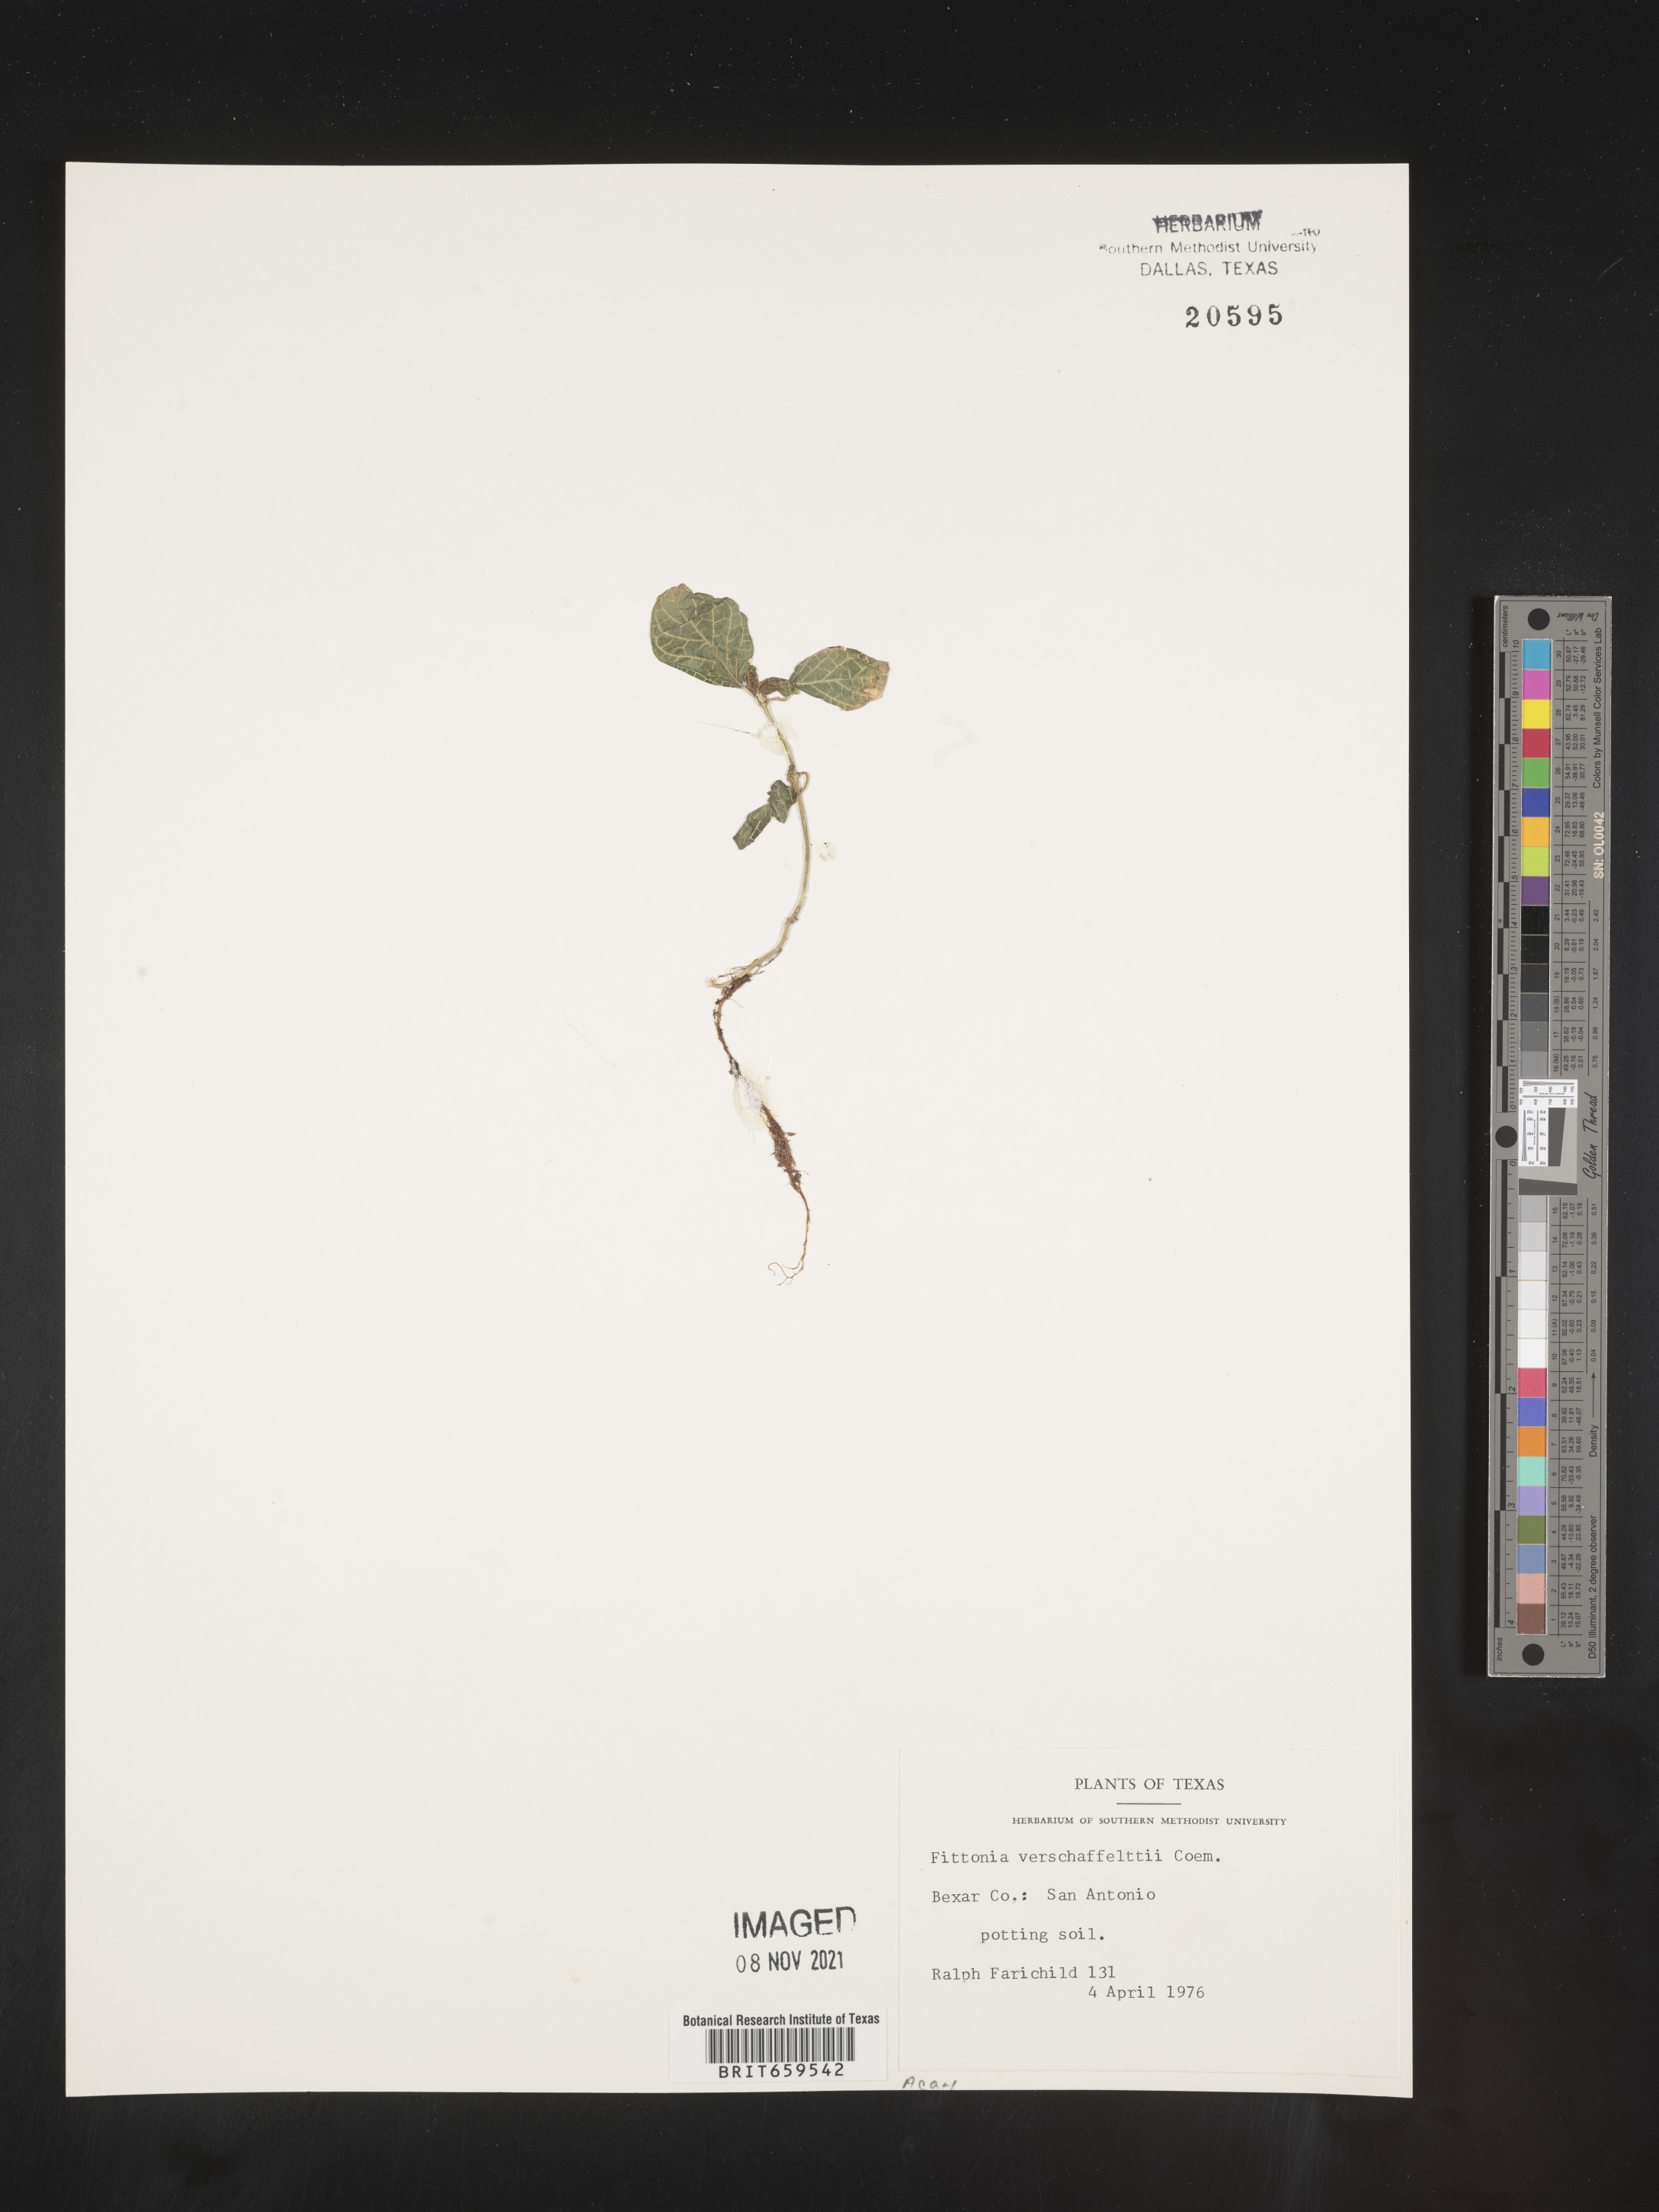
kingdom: Plantae
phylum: Tracheophyta
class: Magnoliopsida
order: Lamiales
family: Acanthaceae
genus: Fittonia
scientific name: Fittonia
